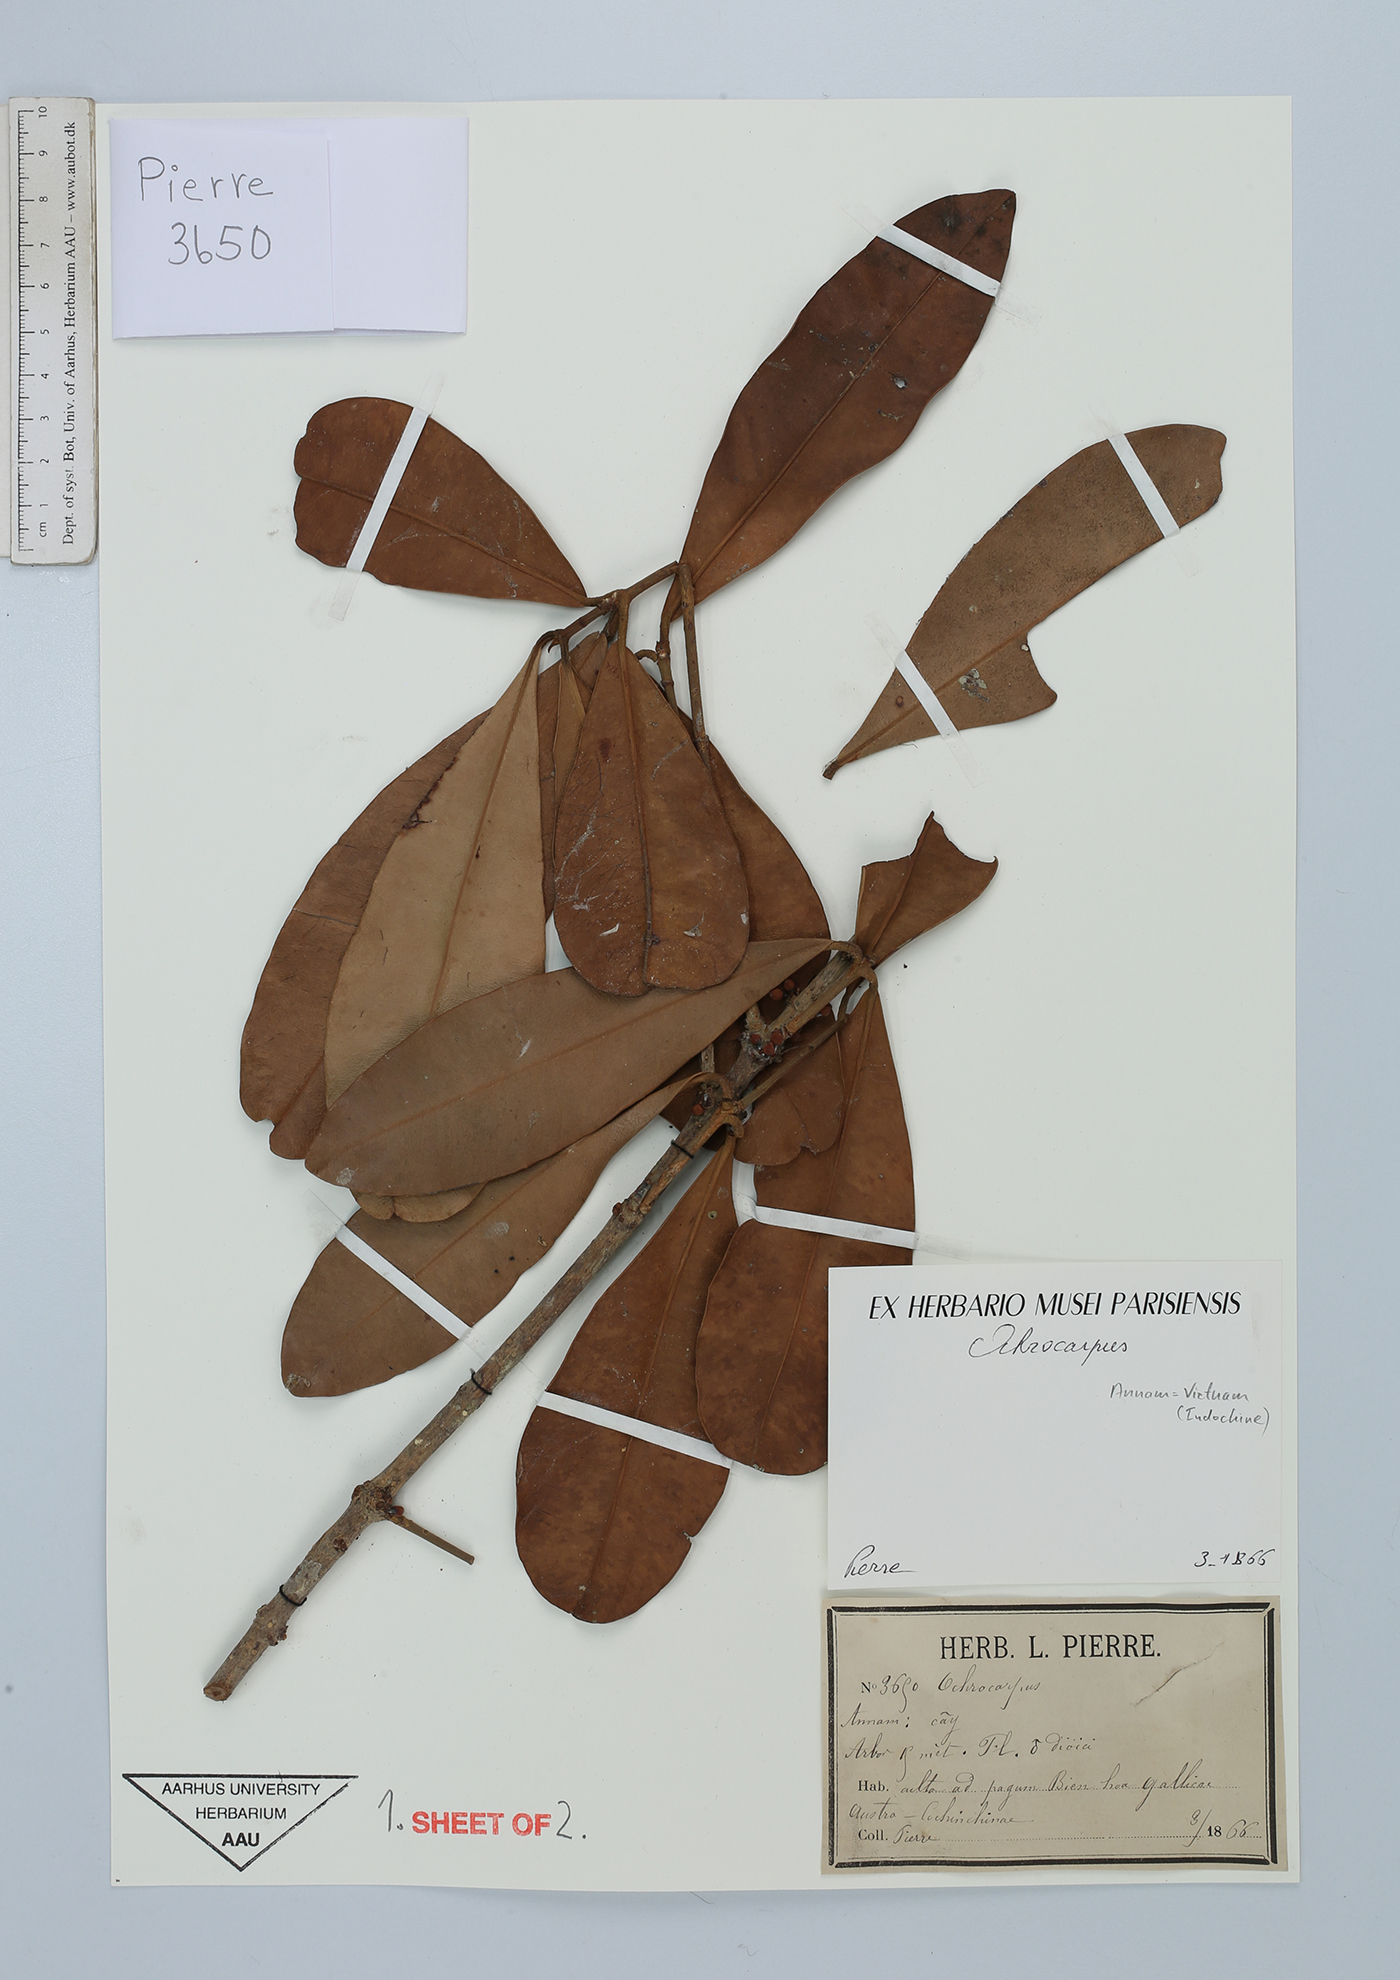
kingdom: Plantae
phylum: Tracheophyta
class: Magnoliopsida
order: Malpighiales
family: Clusiaceae
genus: Garcinia
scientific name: Garcinia
